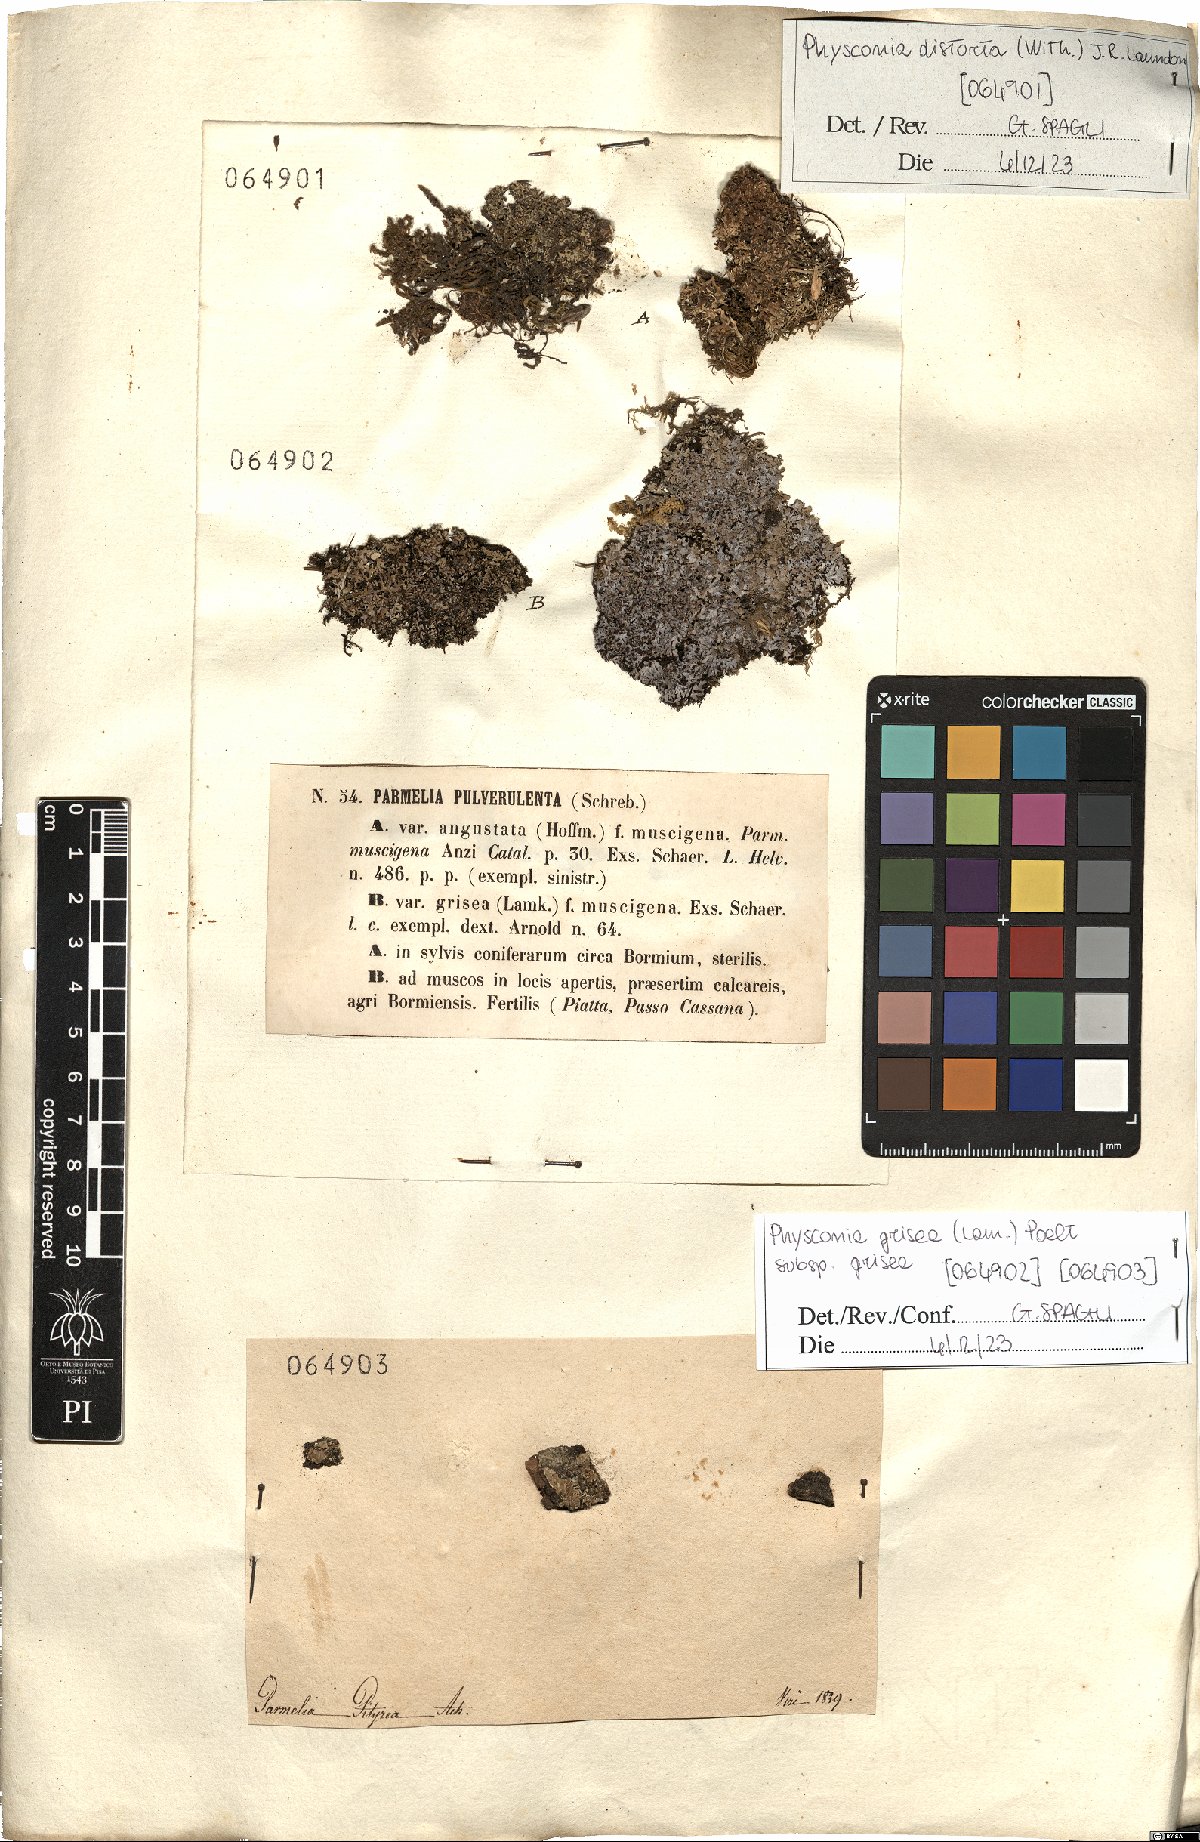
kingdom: Fungi
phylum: Ascomycota
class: Lecanoromycetes
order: Caliciales
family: Physciaceae
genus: Poeltonia
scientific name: Poeltonia grisea
